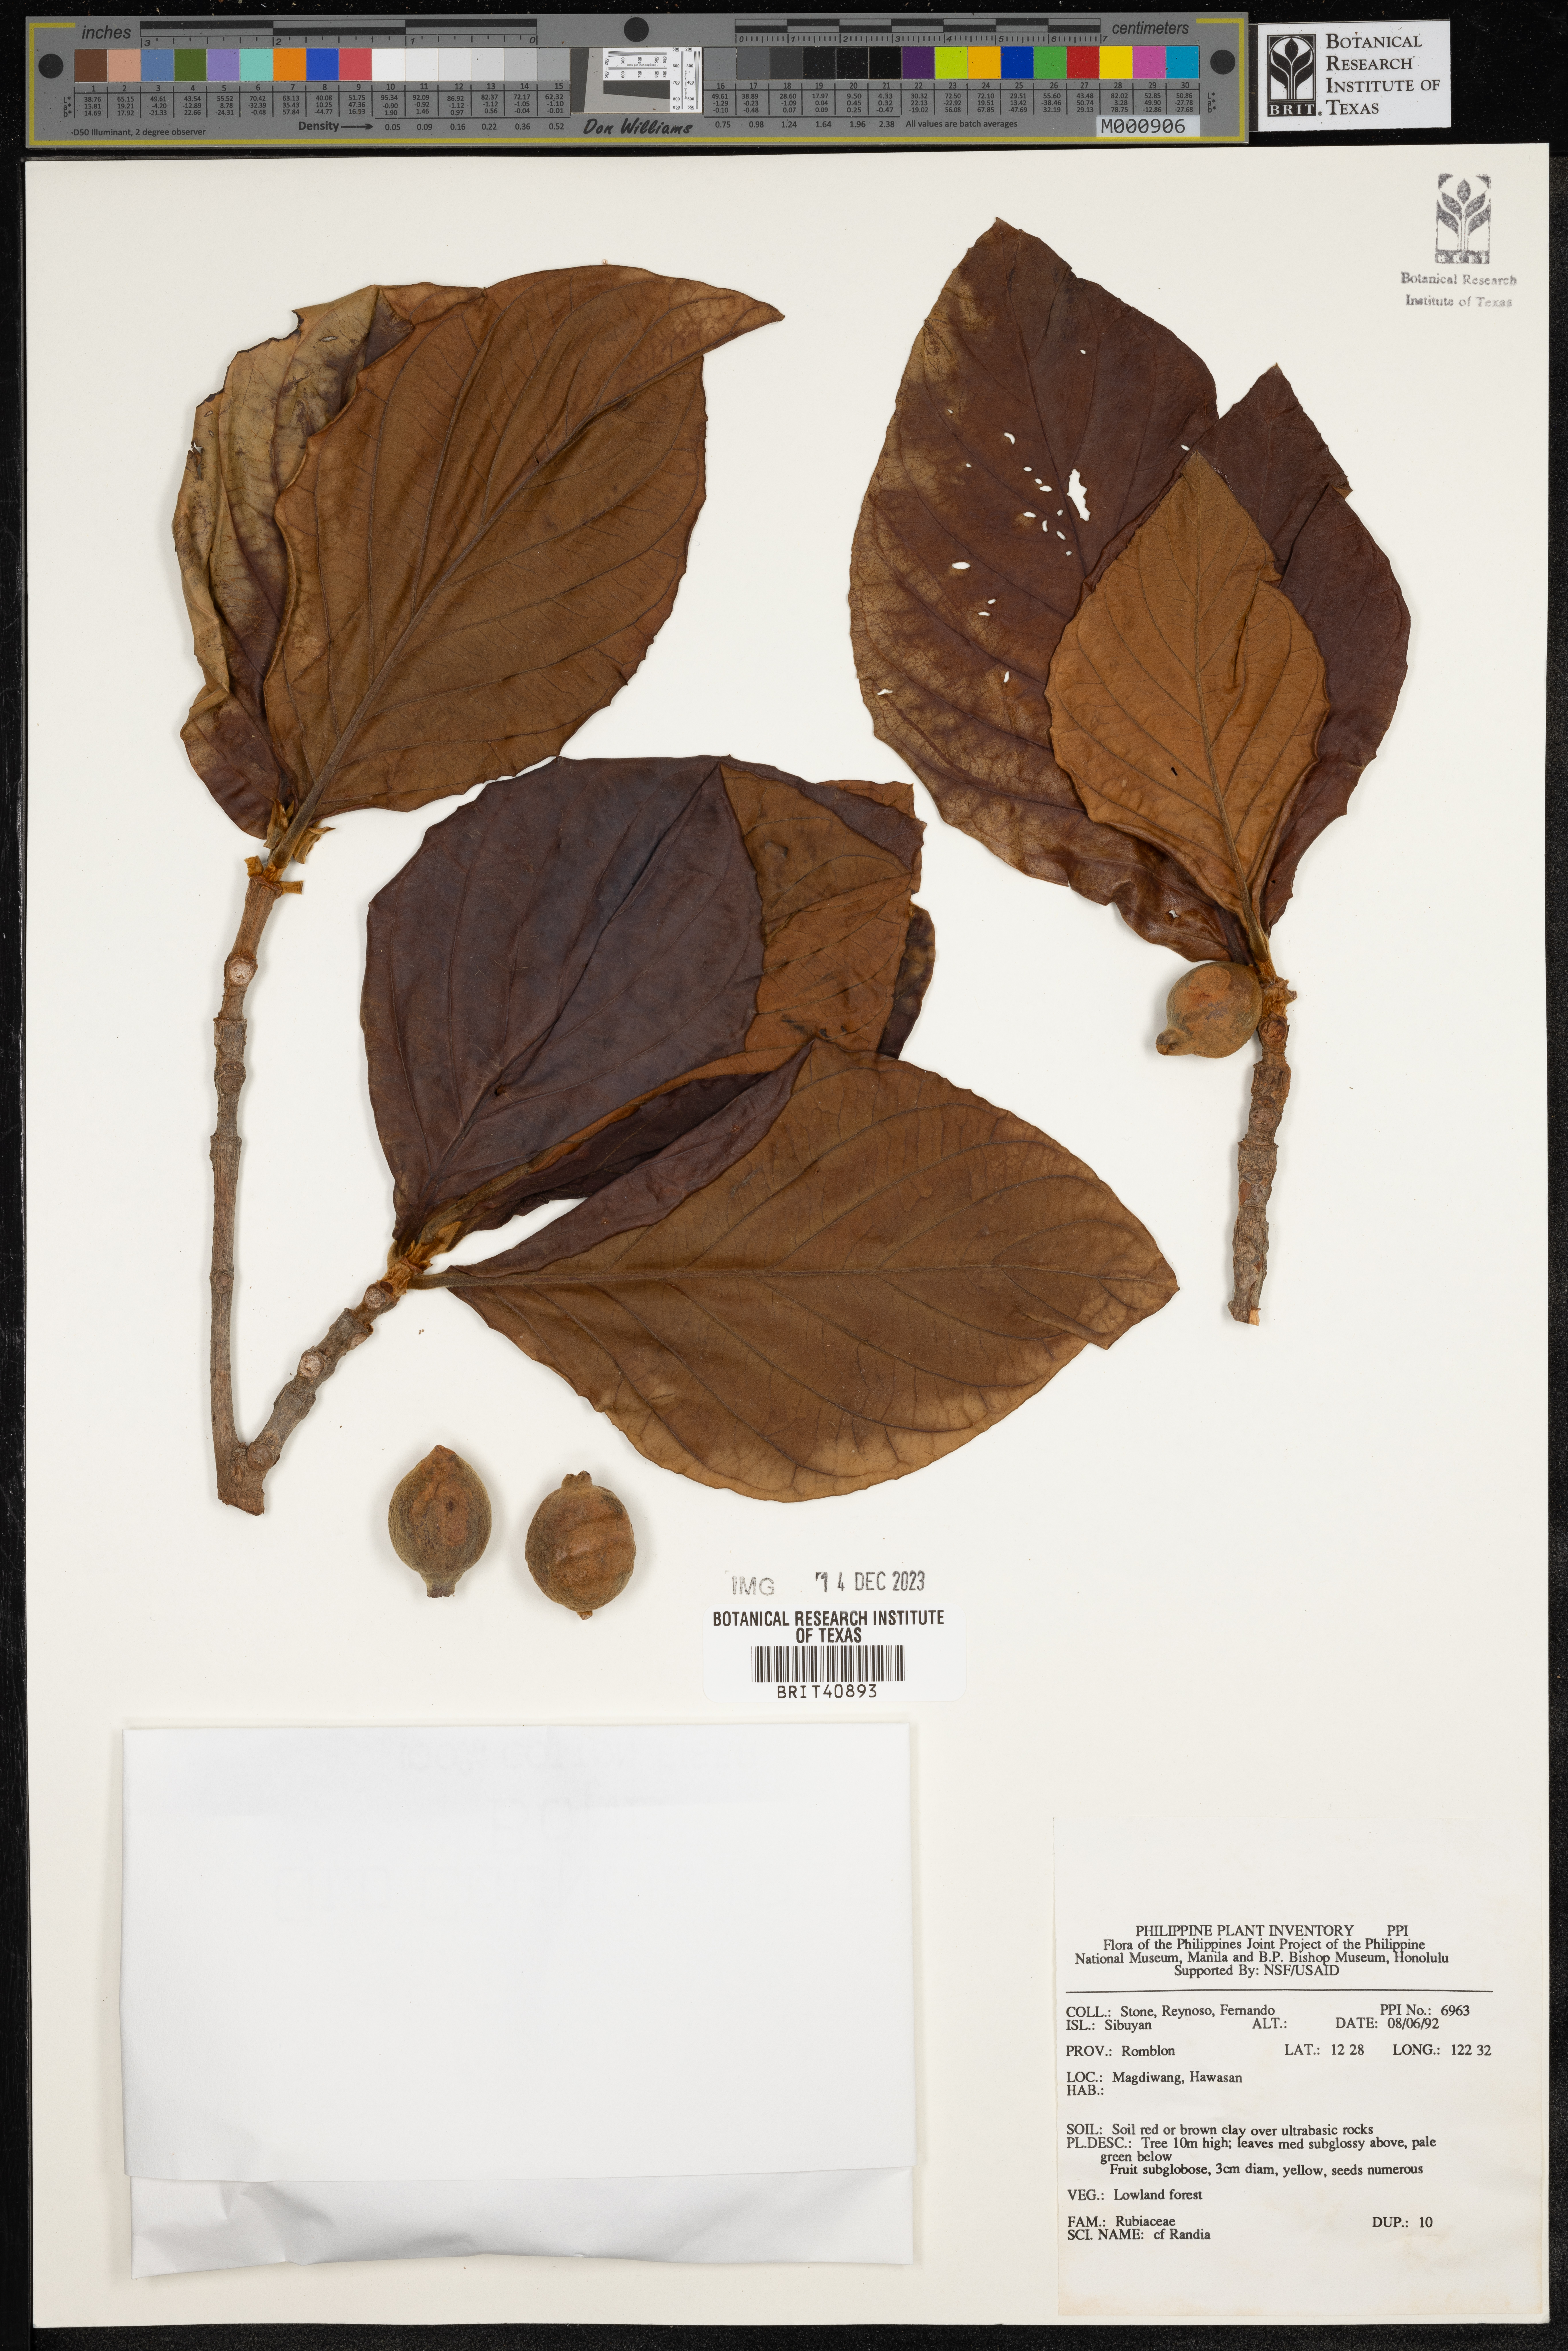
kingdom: Plantae
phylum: Tracheophyta
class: Magnoliopsida
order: Gentianales
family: Rubiaceae
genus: Randia
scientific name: Randia
